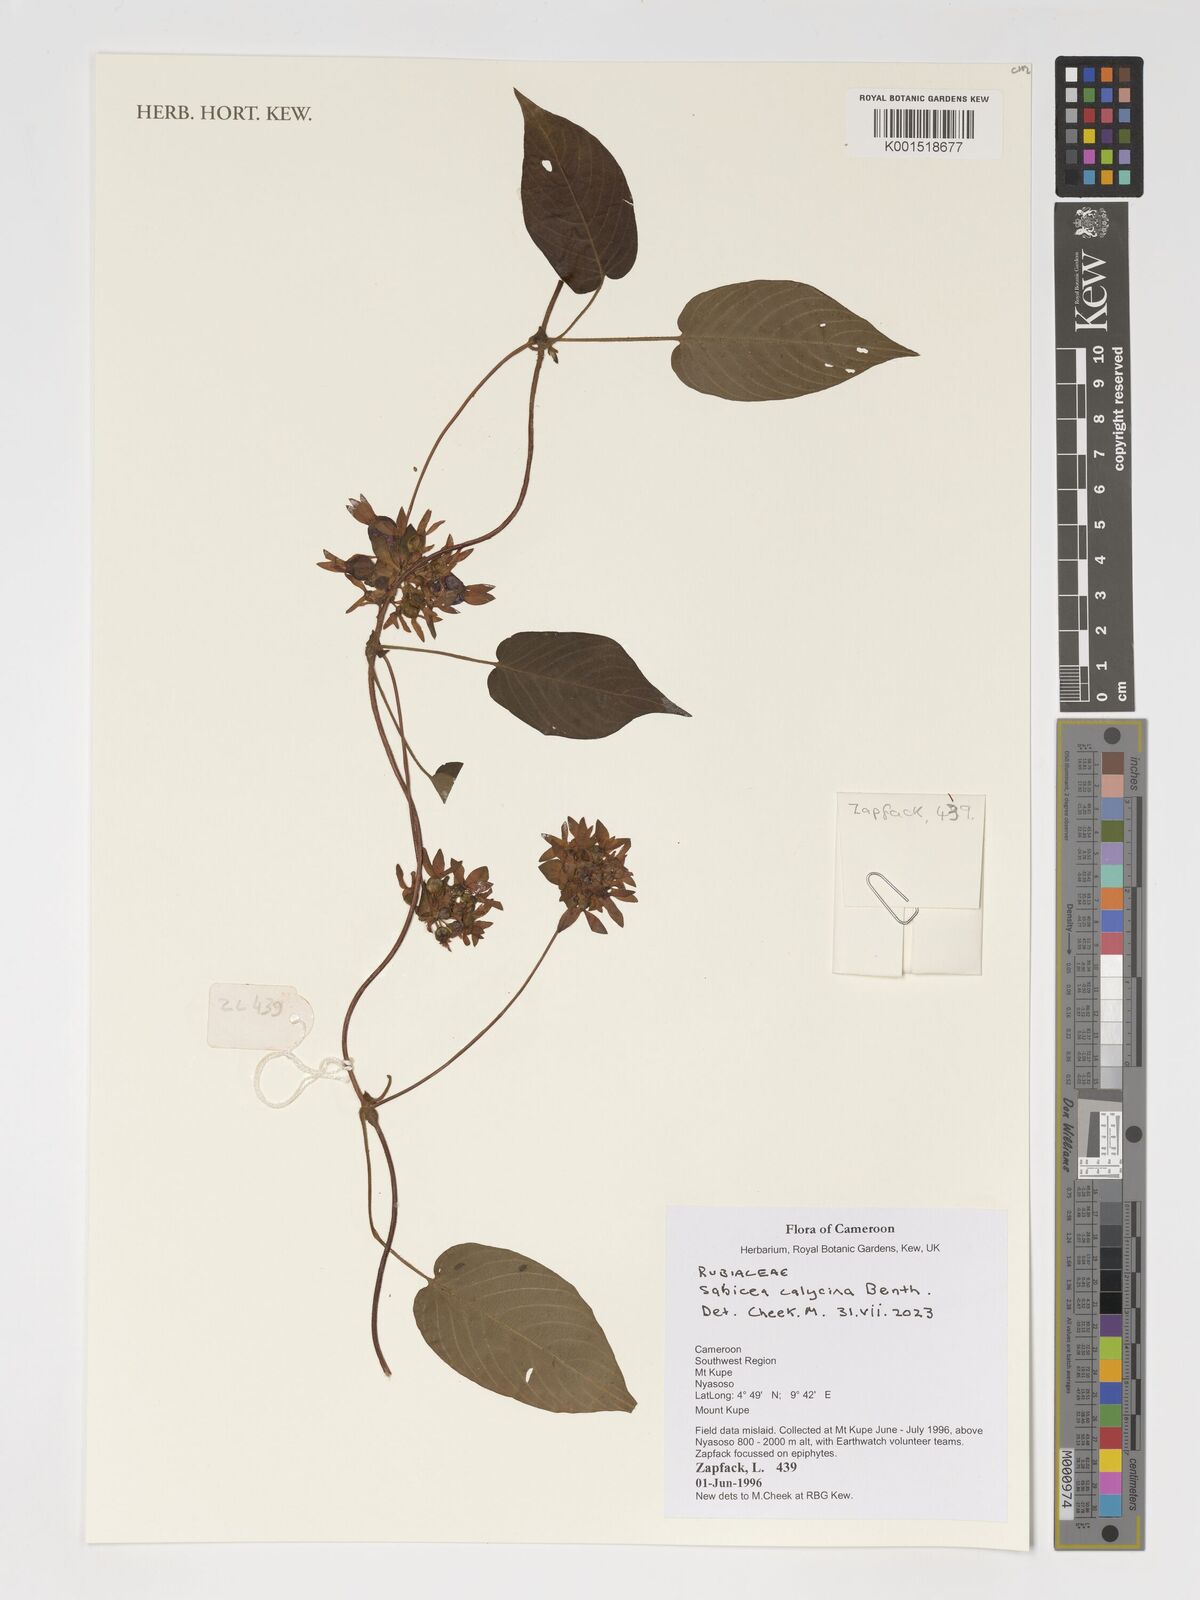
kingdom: Plantae
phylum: Tracheophyta
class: Magnoliopsida
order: Gentianales
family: Rubiaceae
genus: Sabicea
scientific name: Sabicea calycina
